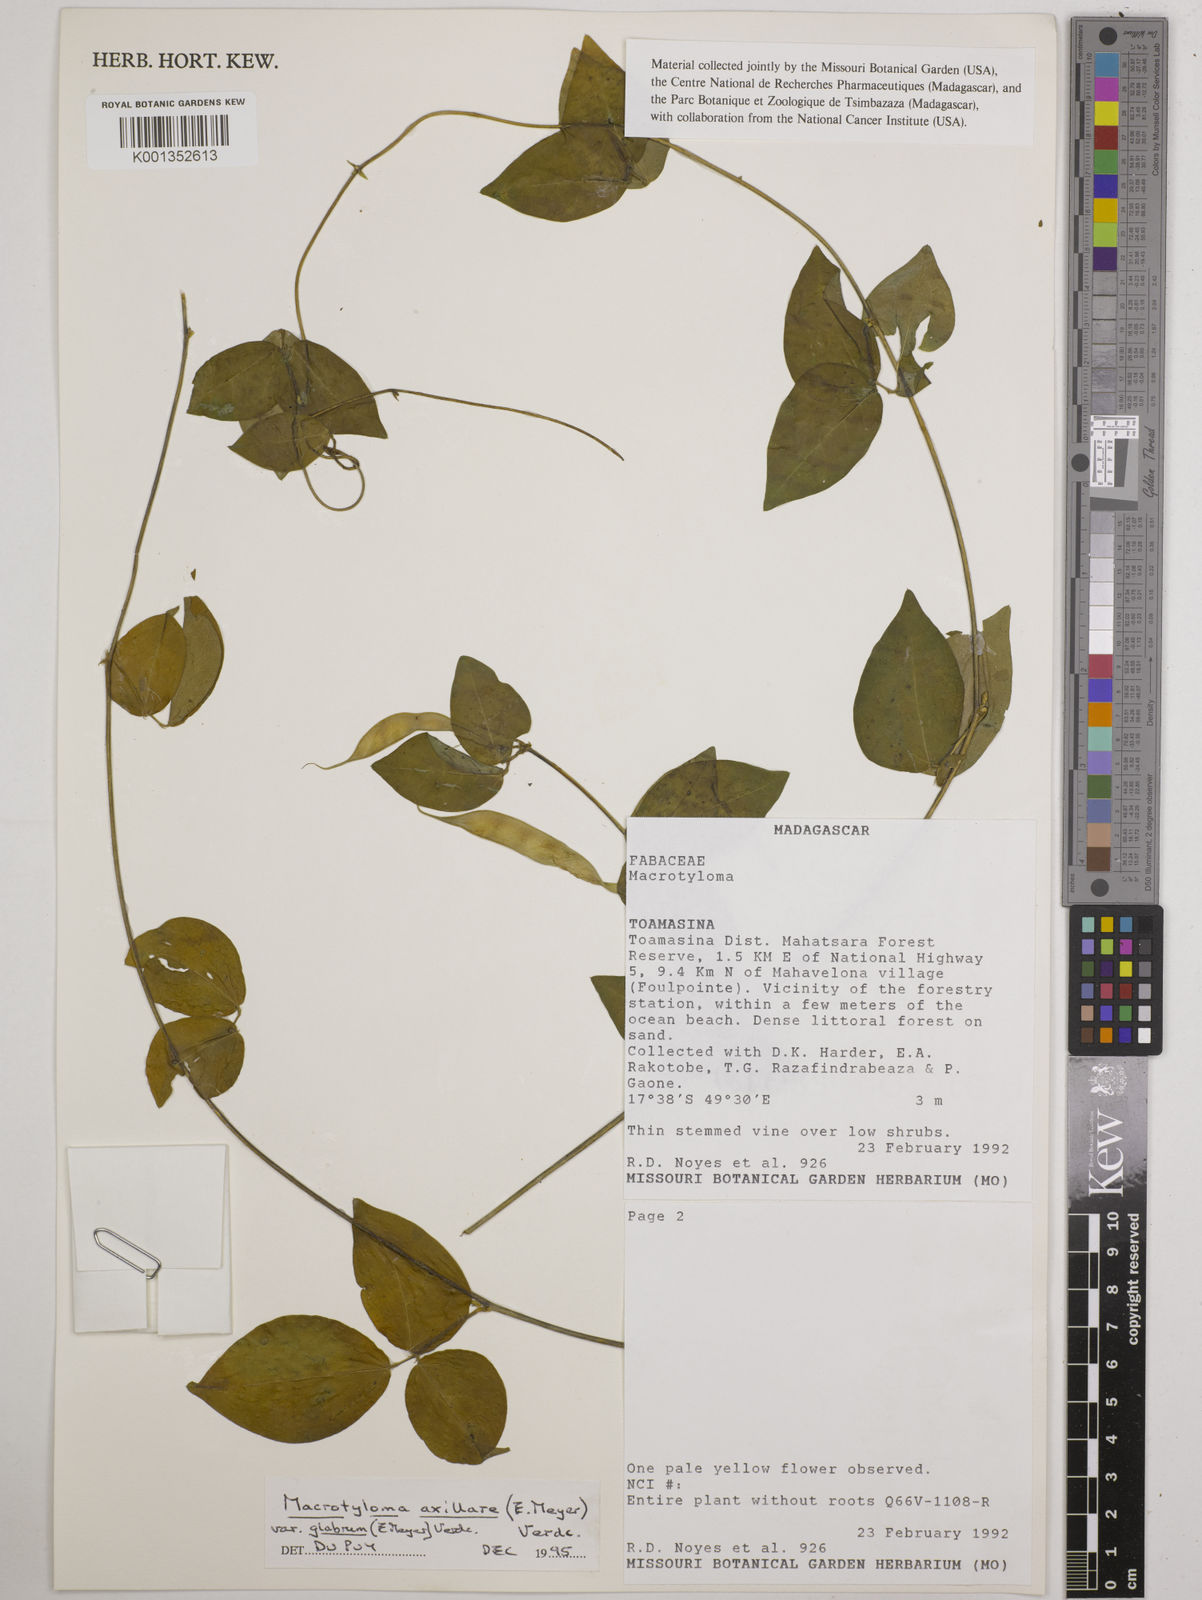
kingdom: Plantae
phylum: Tracheophyta
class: Magnoliopsida
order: Fabales
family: Fabaceae
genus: Macrotyloma
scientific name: Macrotyloma
